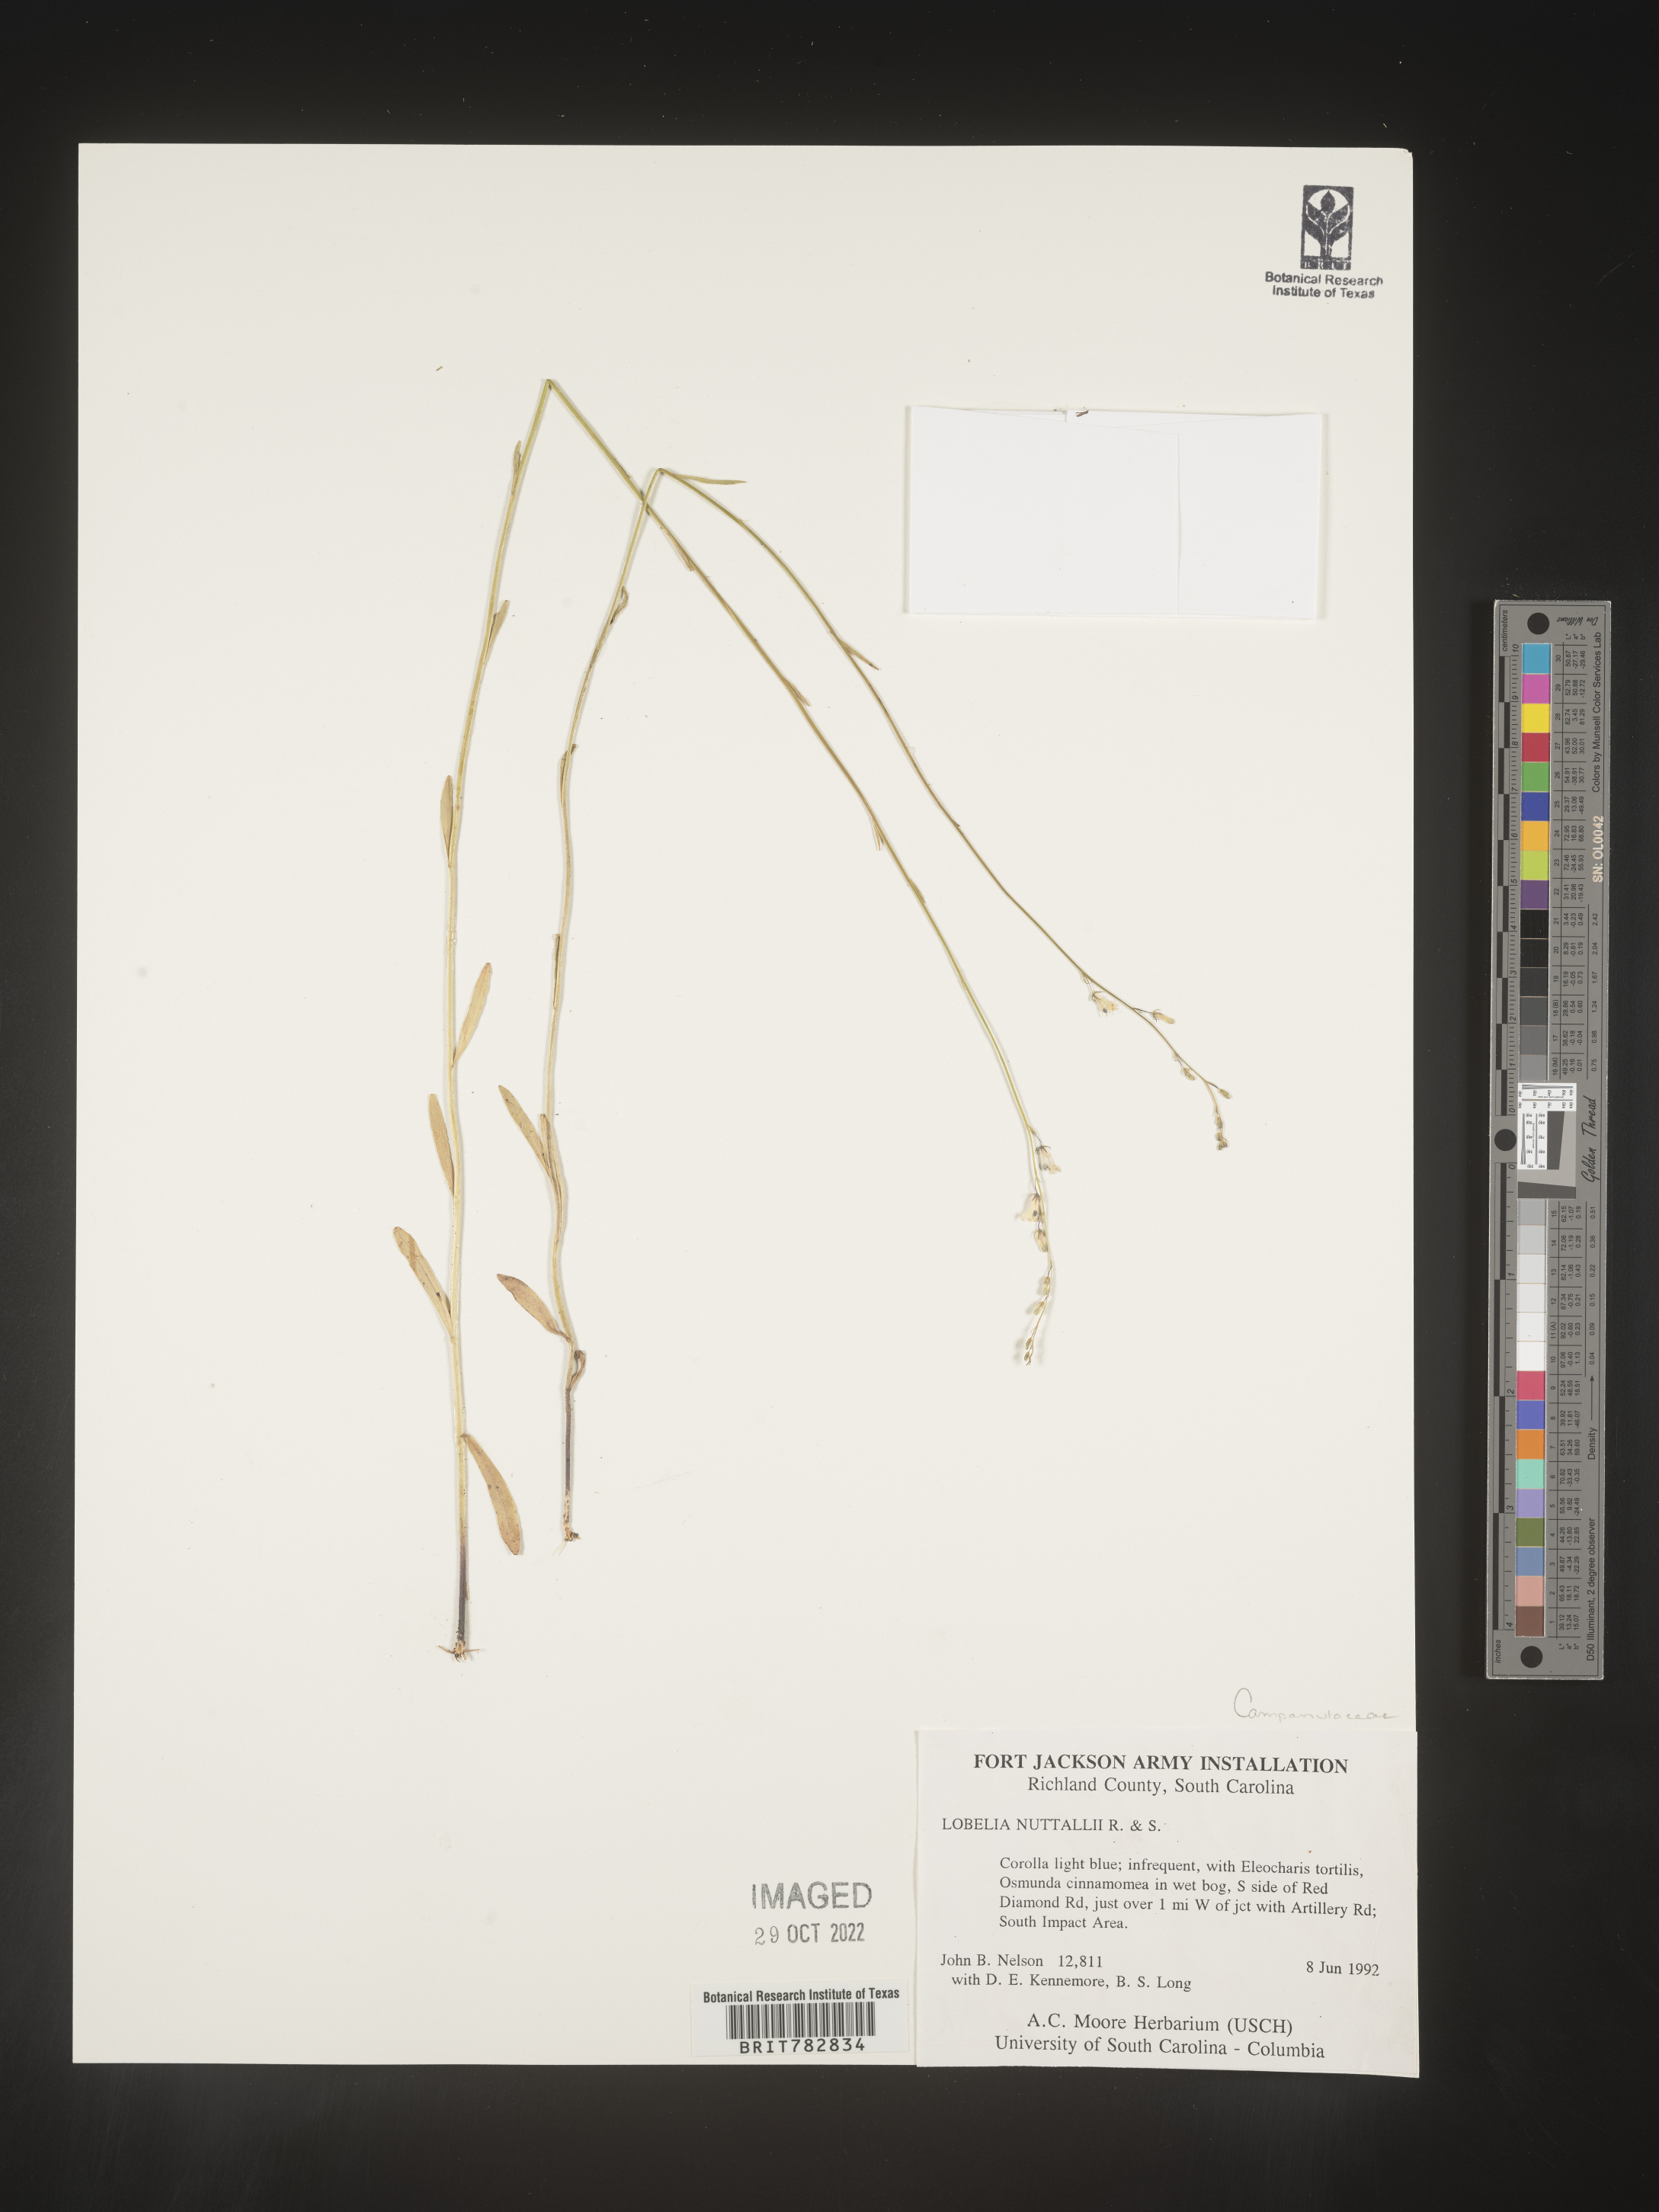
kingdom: Plantae
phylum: Tracheophyta
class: Magnoliopsida
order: Asterales
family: Campanulaceae
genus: Lobelia
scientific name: Lobelia nuttallii
